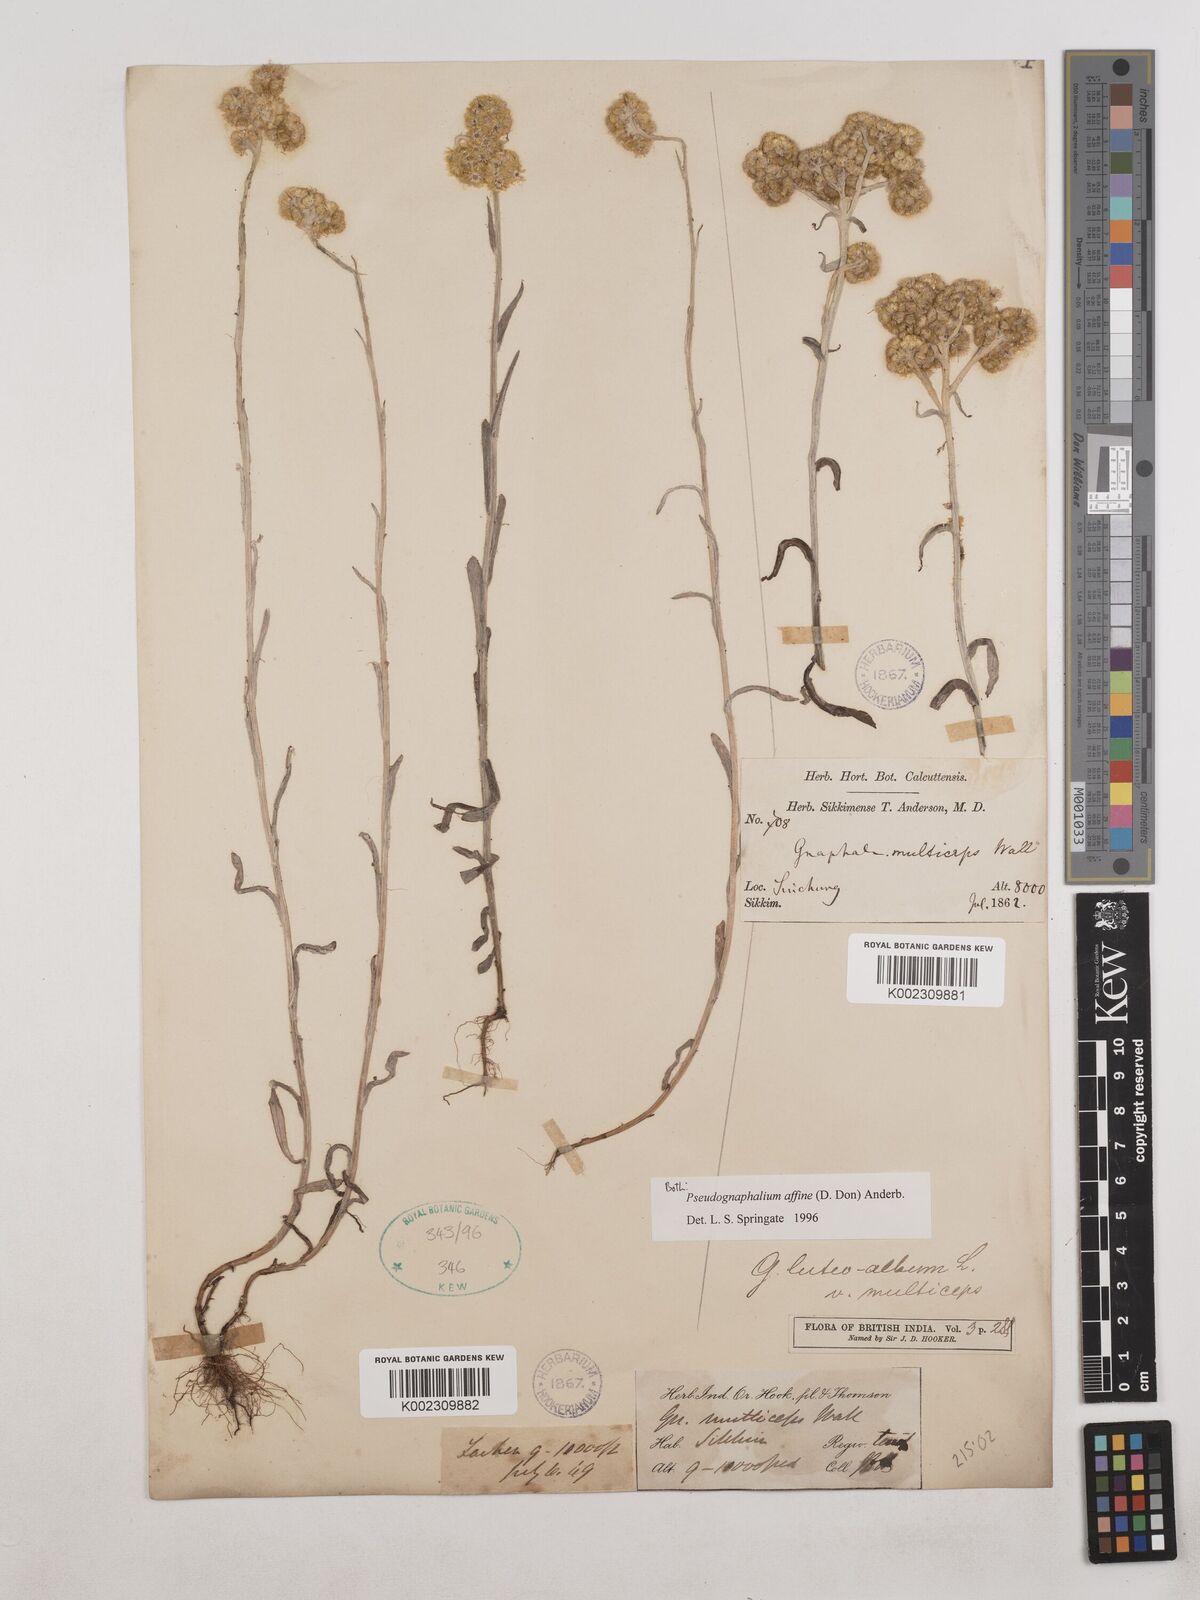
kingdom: Plantae
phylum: Tracheophyta
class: Magnoliopsida
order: Asterales
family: Asteraceae
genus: Helichrysum
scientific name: Helichrysum luteoalbum
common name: Daisy
